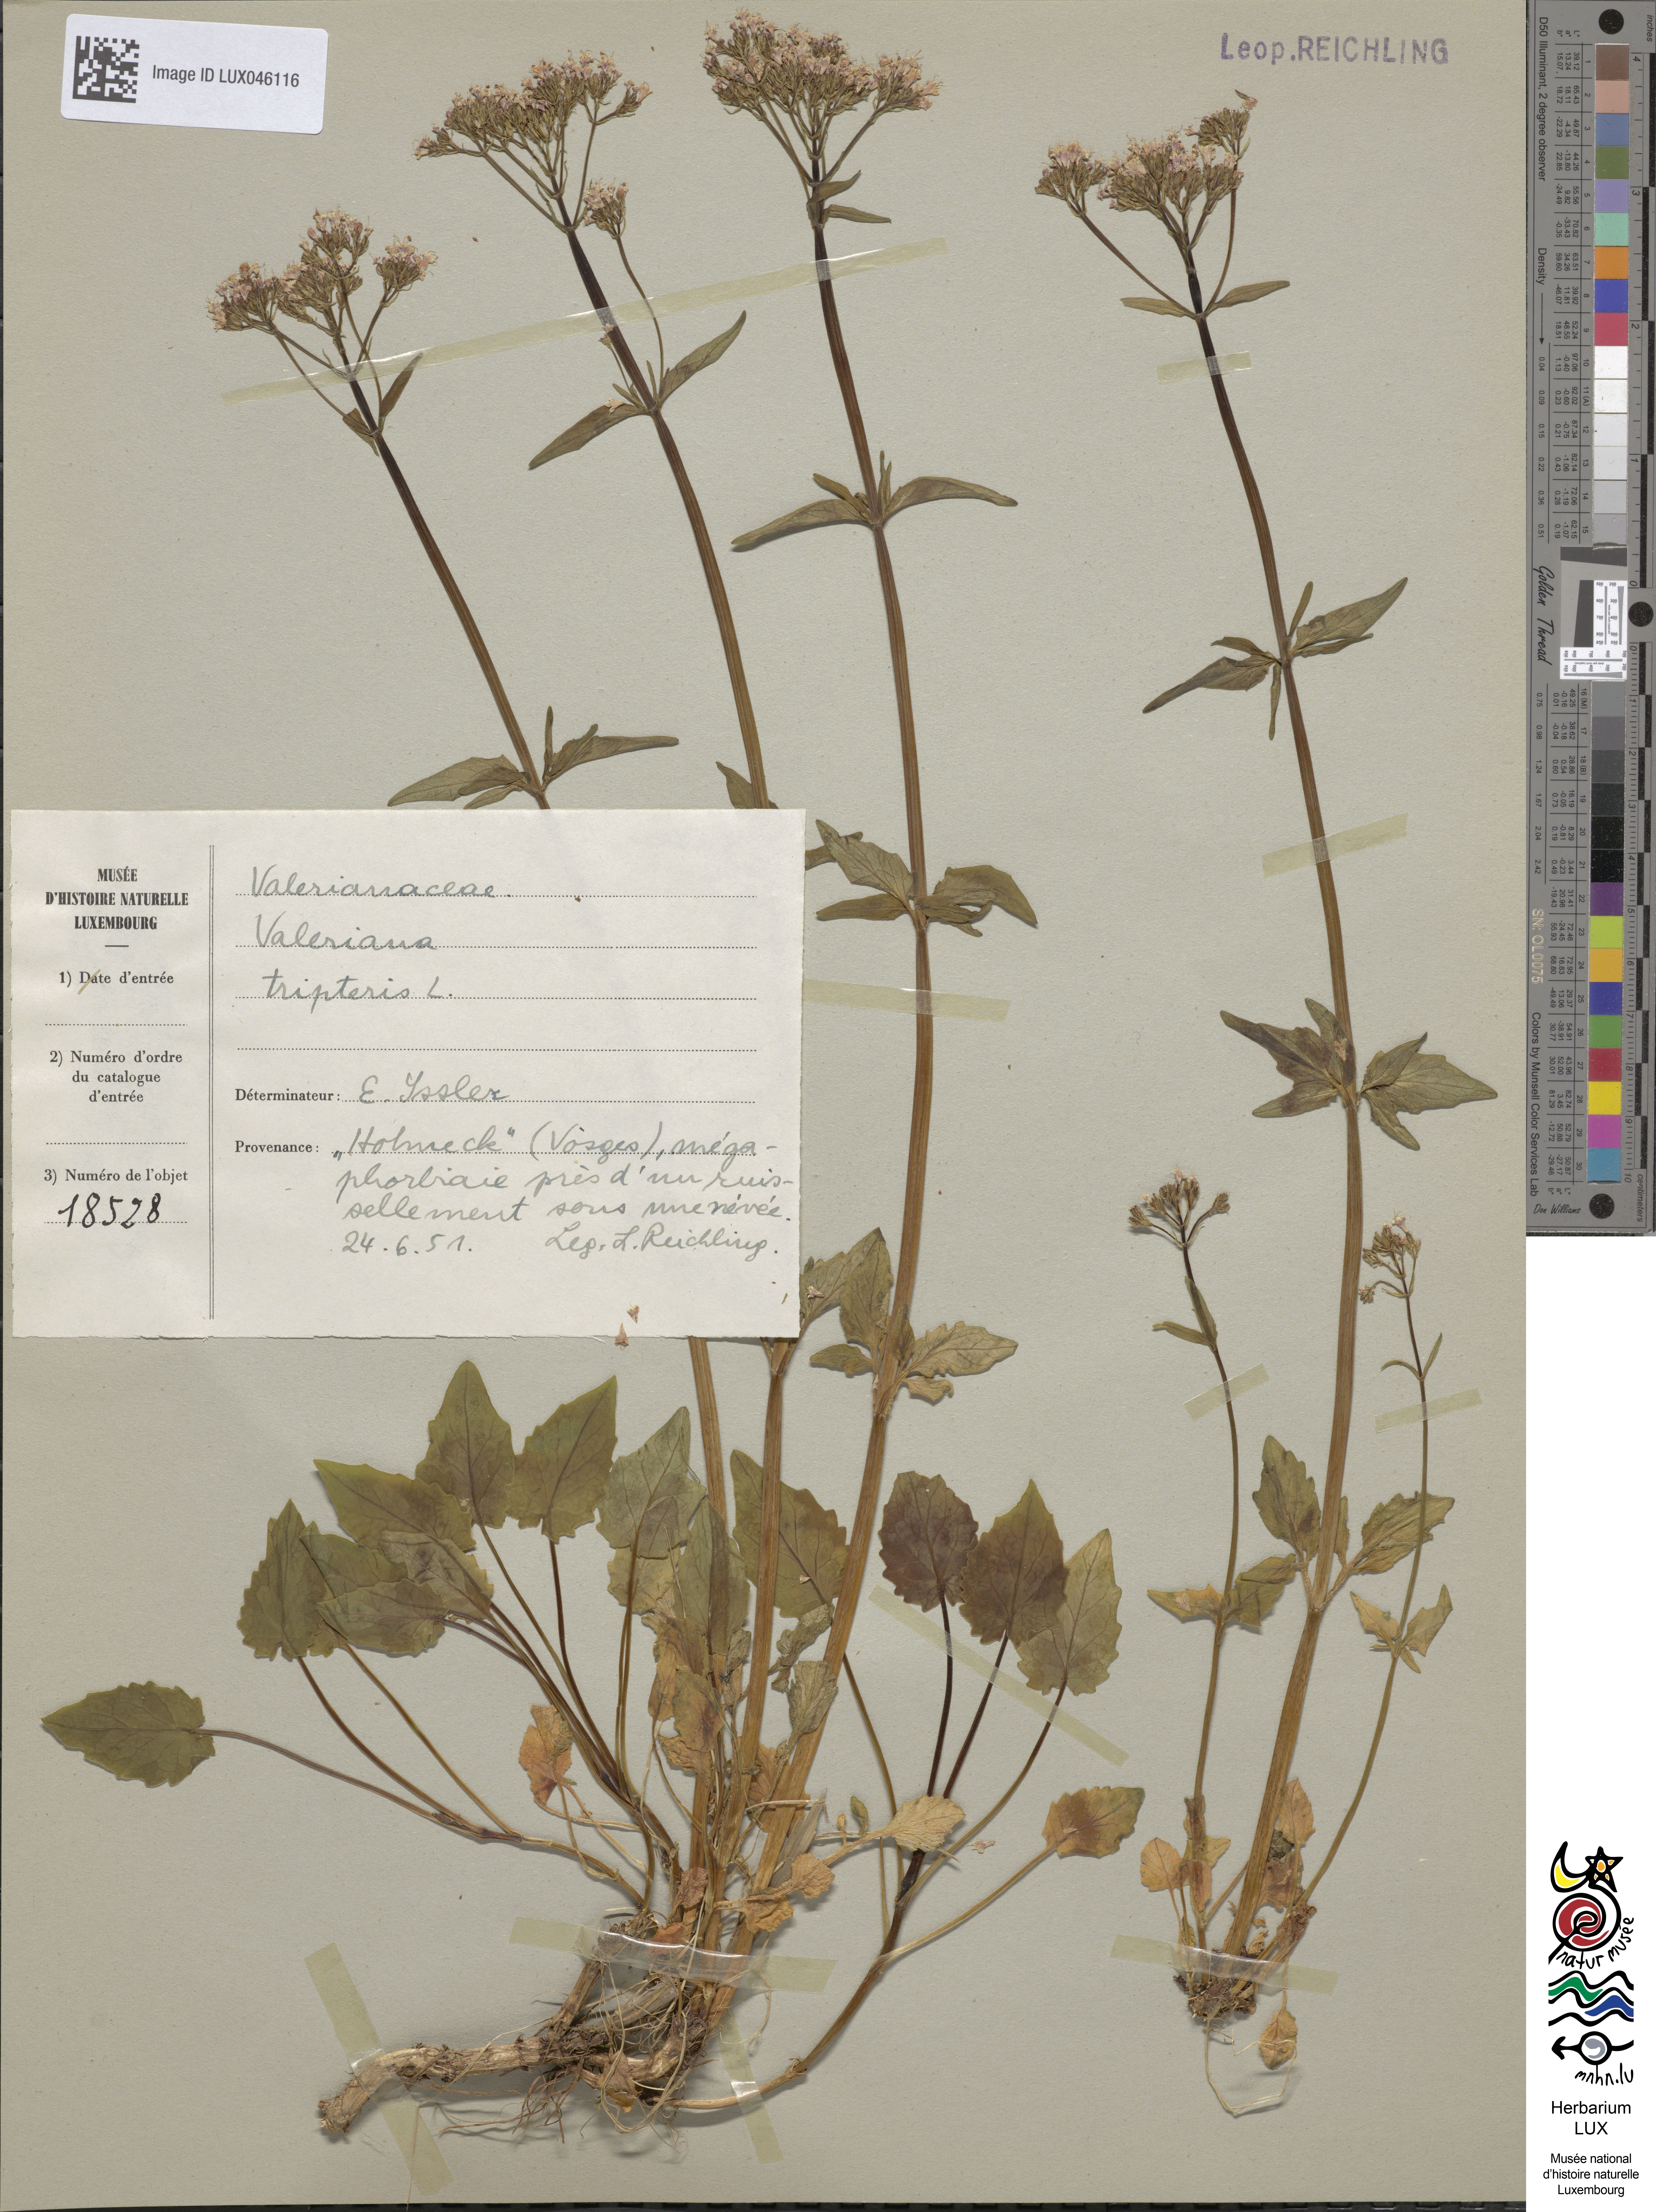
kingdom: Plantae
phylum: Tracheophyta
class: Magnoliopsida
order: Dipsacales
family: Caprifoliaceae
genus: Valeriana
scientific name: Valeriana tripteris
